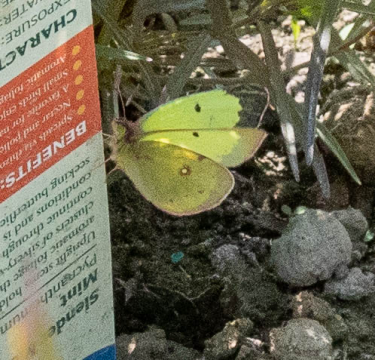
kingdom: Animalia
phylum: Arthropoda
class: Insecta
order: Lepidoptera
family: Pieridae
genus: Colias
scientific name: Colias philodice
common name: Clouded Sulphur
